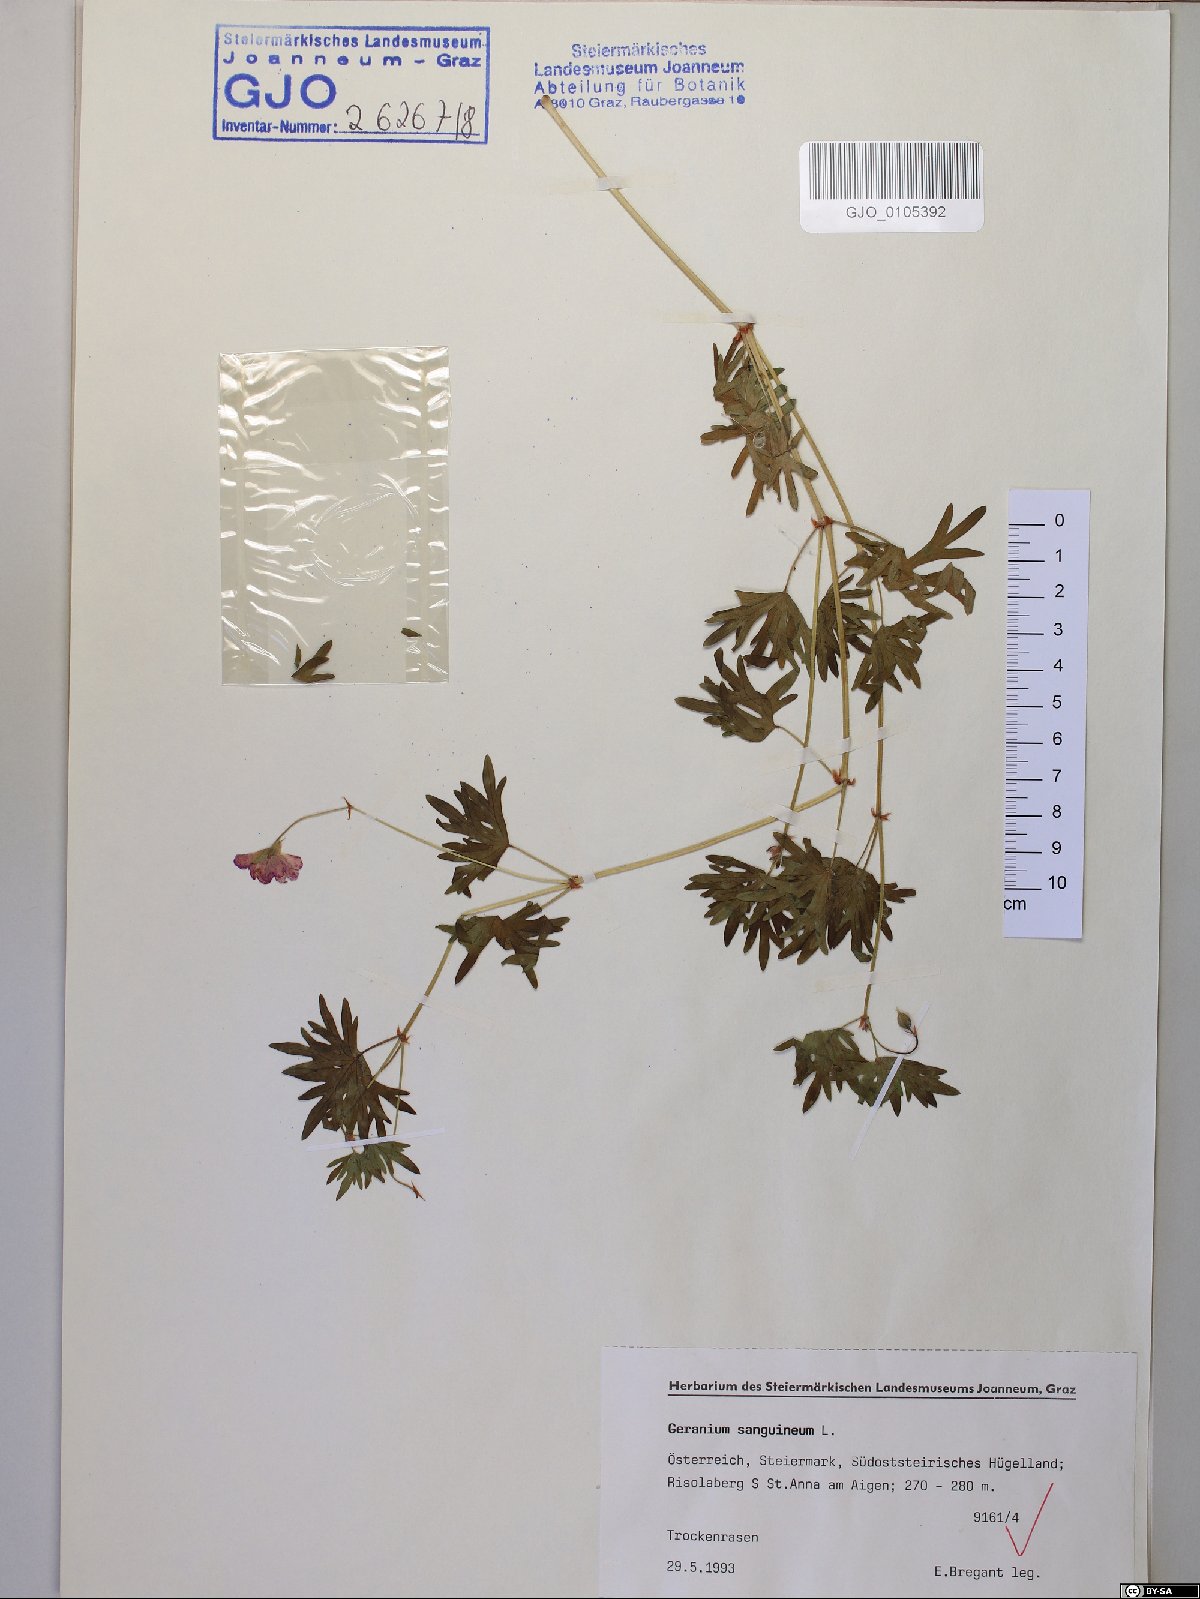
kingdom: Plantae
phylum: Tracheophyta
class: Magnoliopsida
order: Geraniales
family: Geraniaceae
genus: Geranium
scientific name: Geranium sanguineum
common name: Bloody crane's-bill
